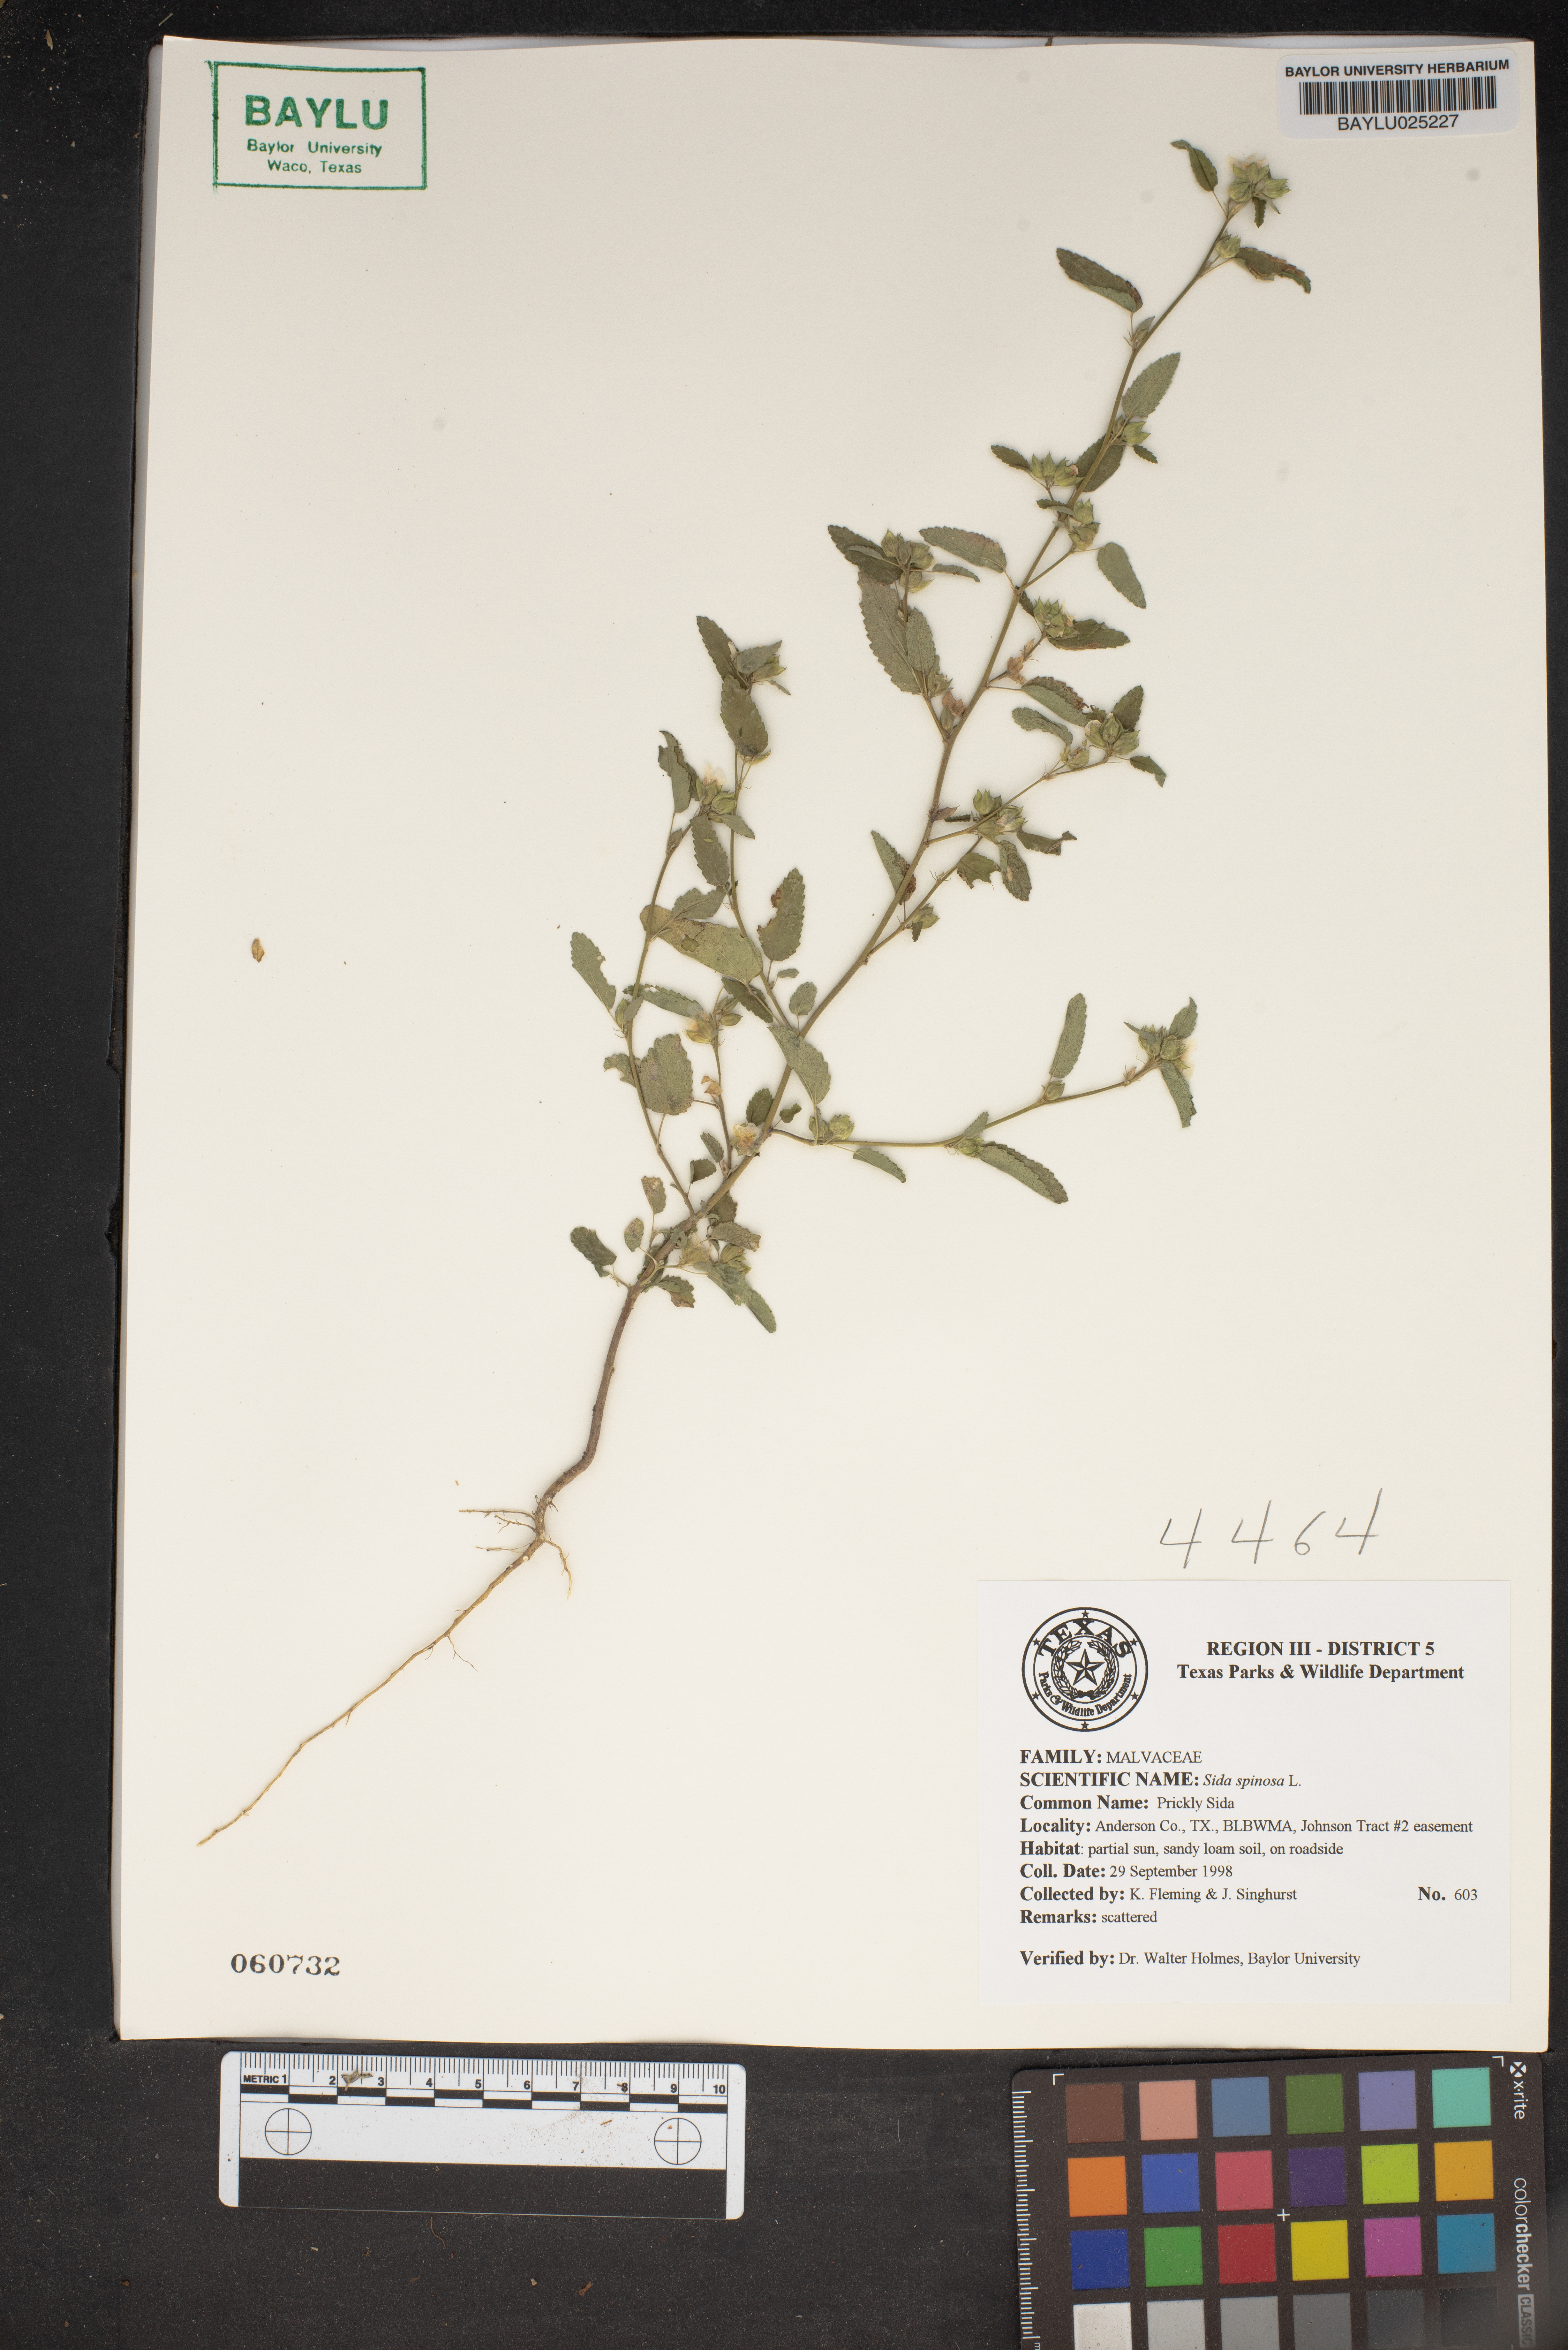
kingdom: Plantae
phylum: Tracheophyta
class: Magnoliopsida
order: Malvales
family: Malvaceae
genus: Sida
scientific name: Sida spinosa
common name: Prickly fanpetals
